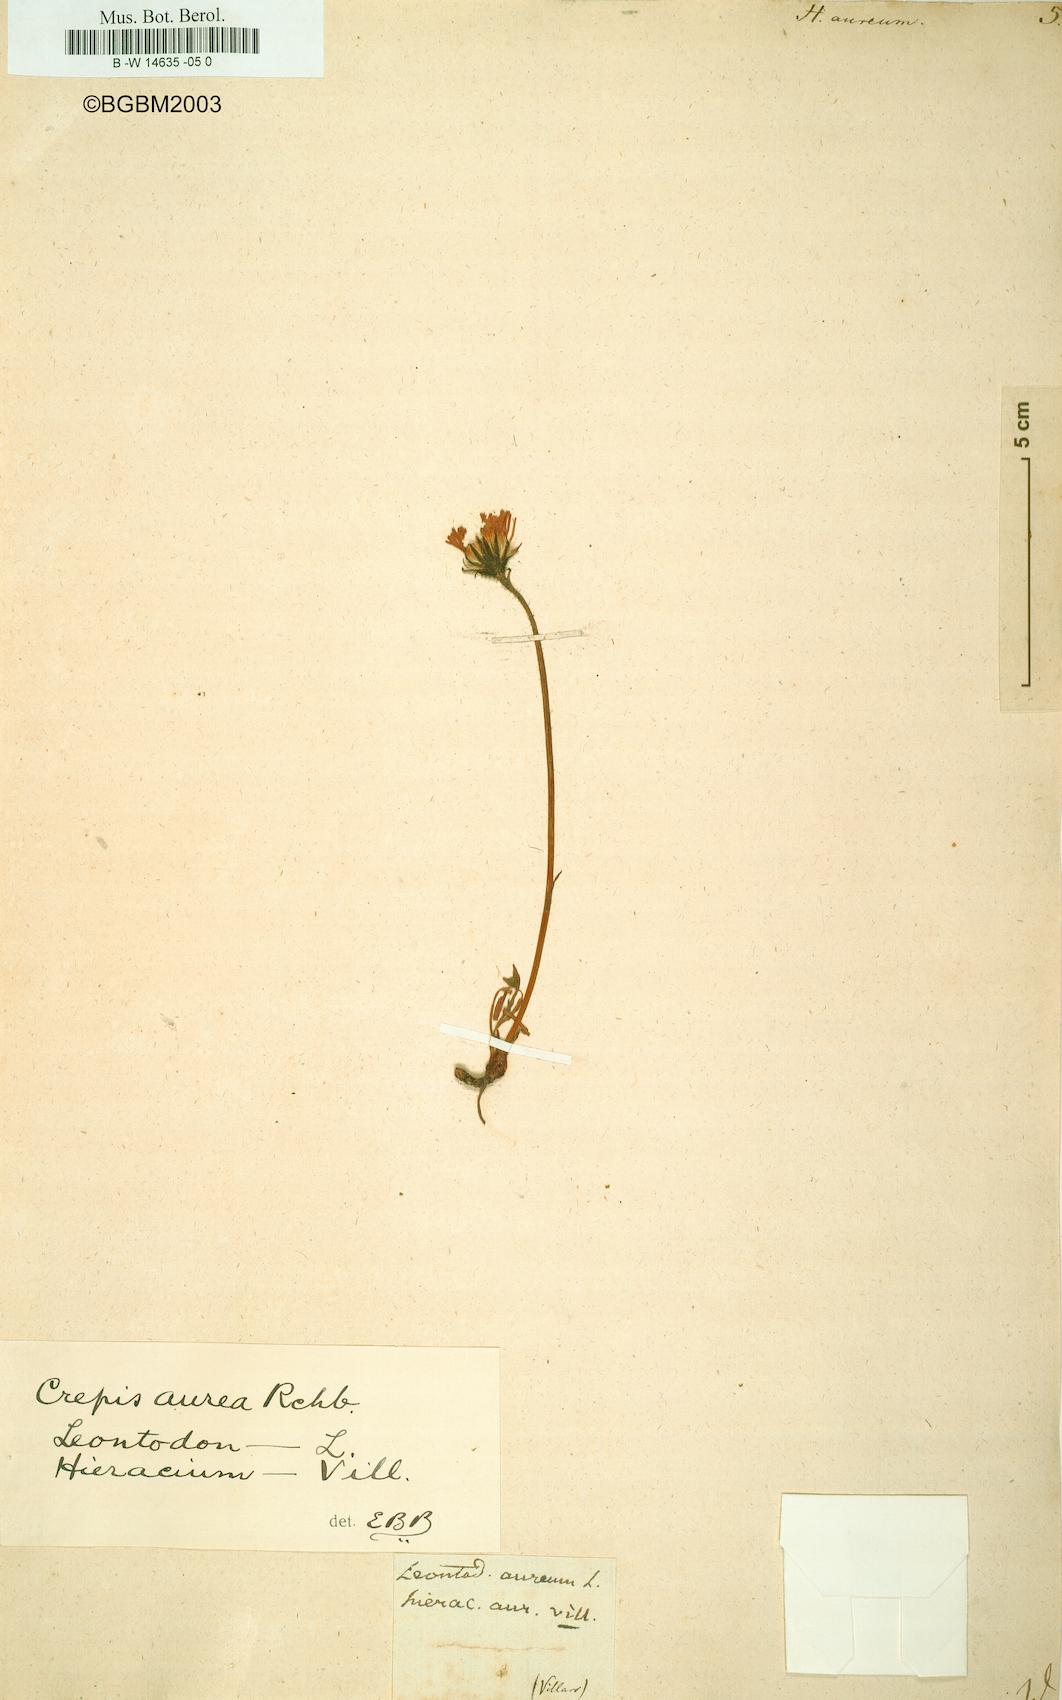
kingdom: Plantae
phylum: Tracheophyta
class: Magnoliopsida
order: Asterales
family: Asteraceae
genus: Hieracium
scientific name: Hieracium aureum
